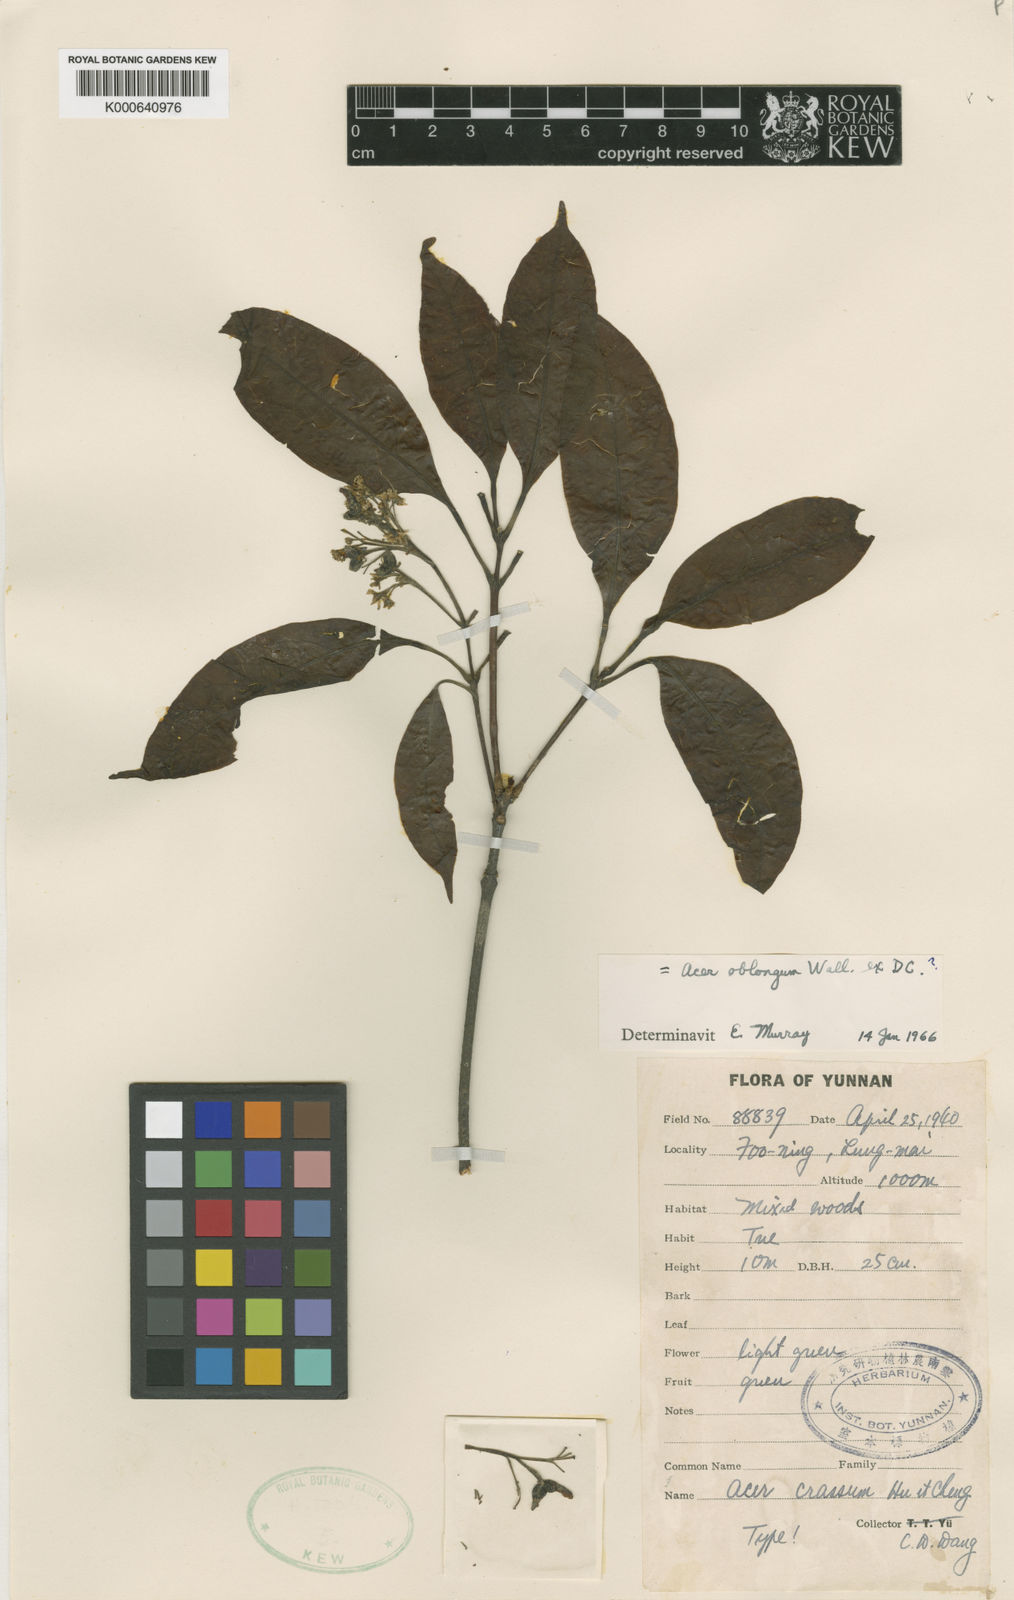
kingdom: Plantae
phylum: Tracheophyta
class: Magnoliopsida
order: Sapindales
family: Sapindaceae
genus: Acer
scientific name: Acer crassum
